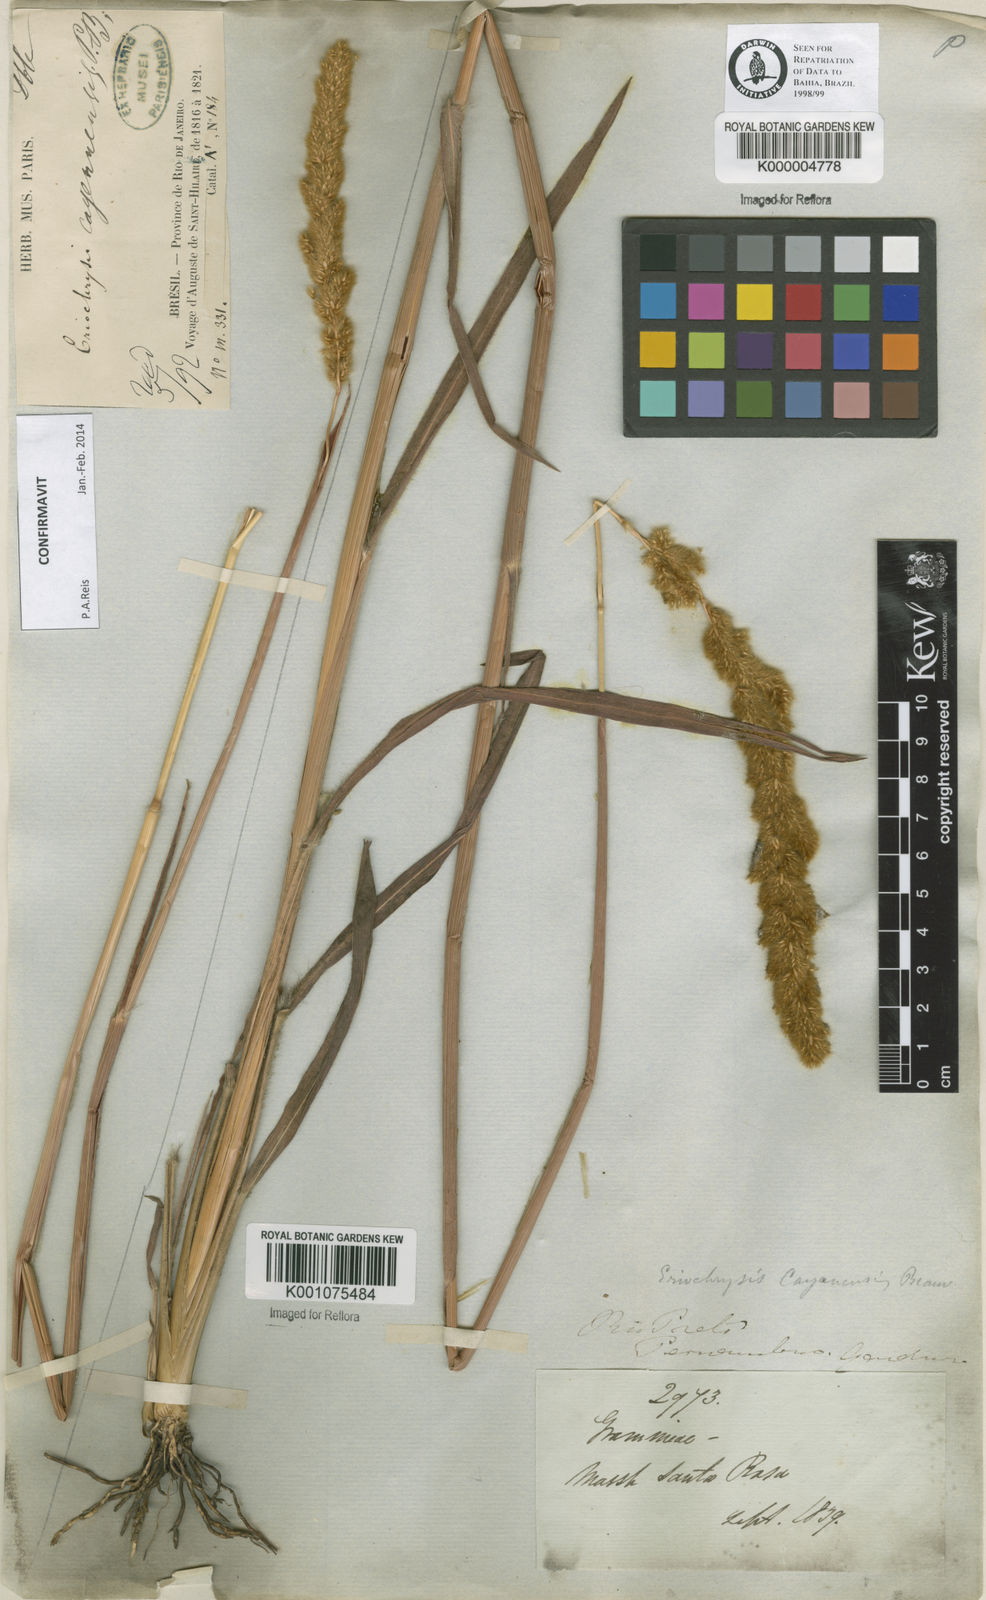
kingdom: Plantae
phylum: Tracheophyta
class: Liliopsida
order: Poales
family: Poaceae
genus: Eriochrysis
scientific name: Eriochrysis cayennensis
